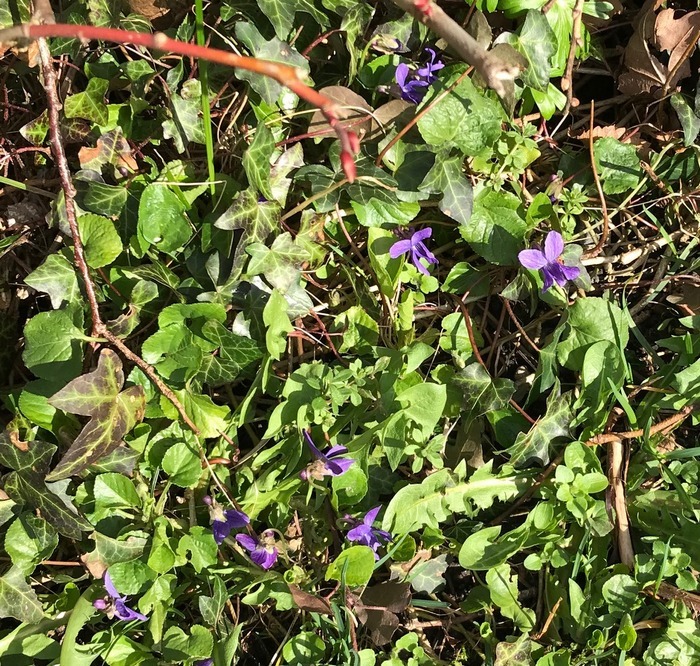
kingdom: Plantae
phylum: Tracheophyta
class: Magnoliopsida
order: Malpighiales
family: Violaceae
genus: Viola
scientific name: Viola odorata
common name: Marts-viol
